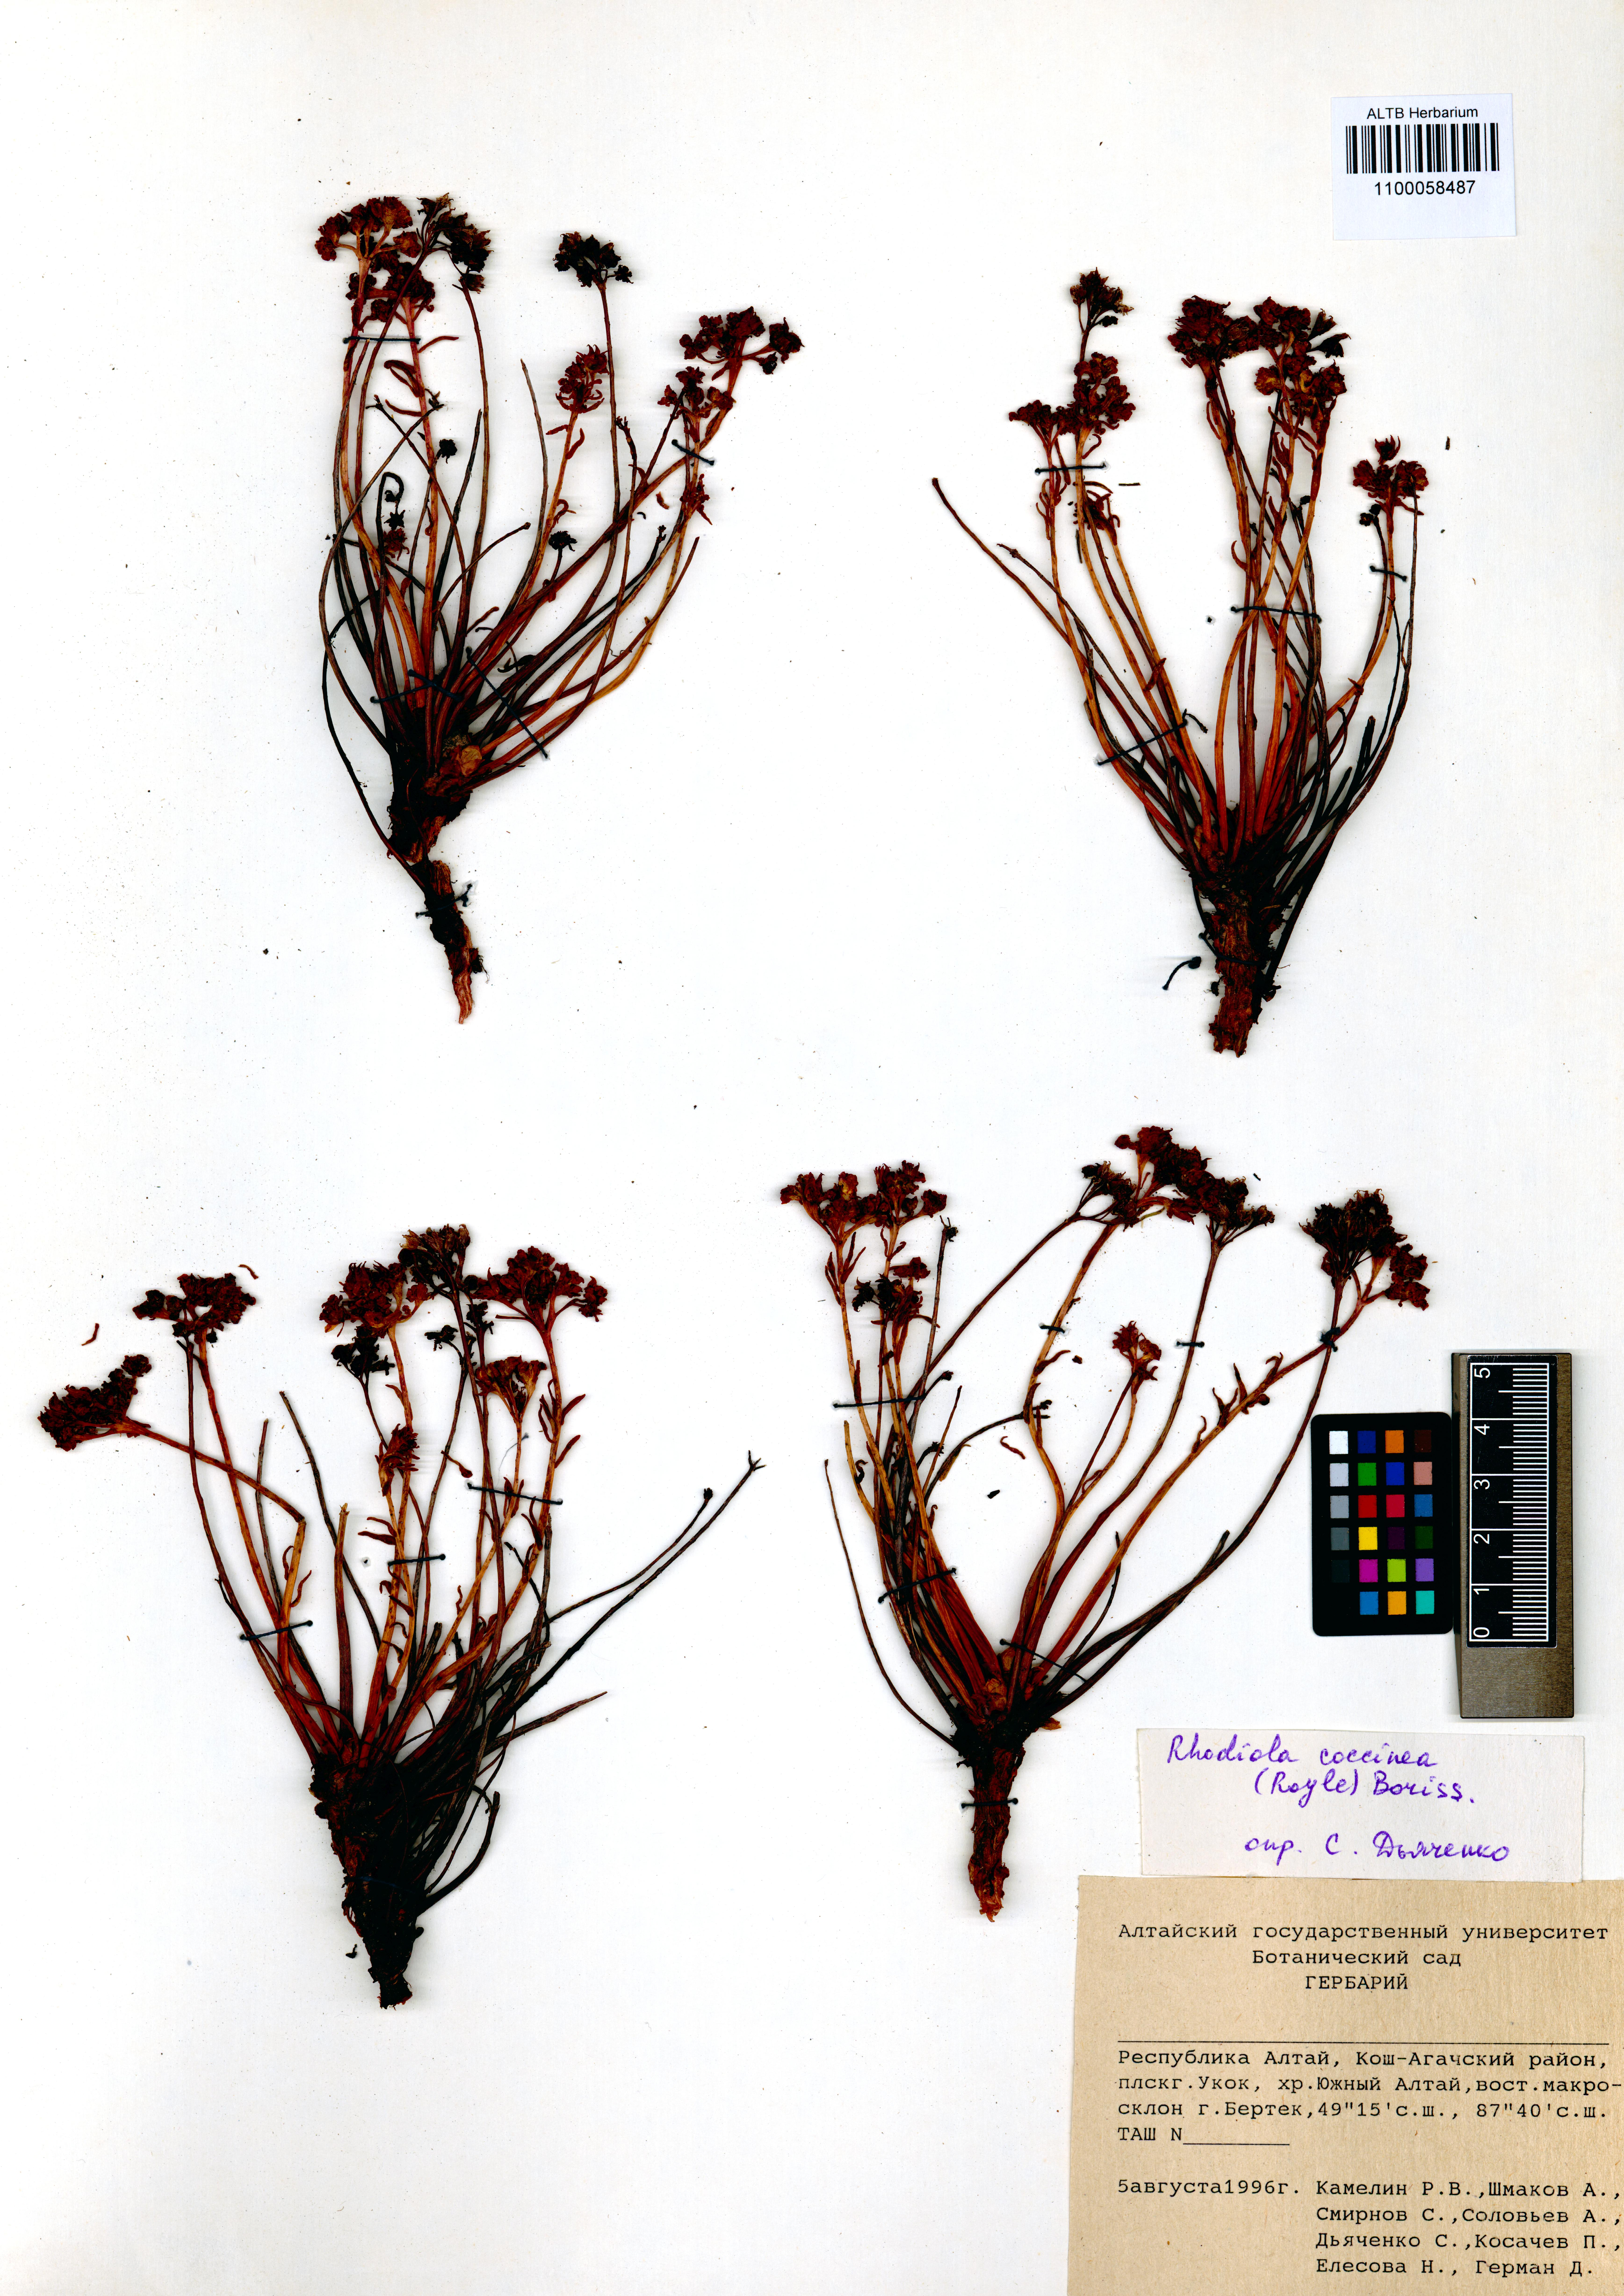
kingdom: Plantae
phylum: Tracheophyta
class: Magnoliopsida
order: Saxifragales
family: Crassulaceae
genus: Rhodiola
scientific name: Rhodiola coccinea
